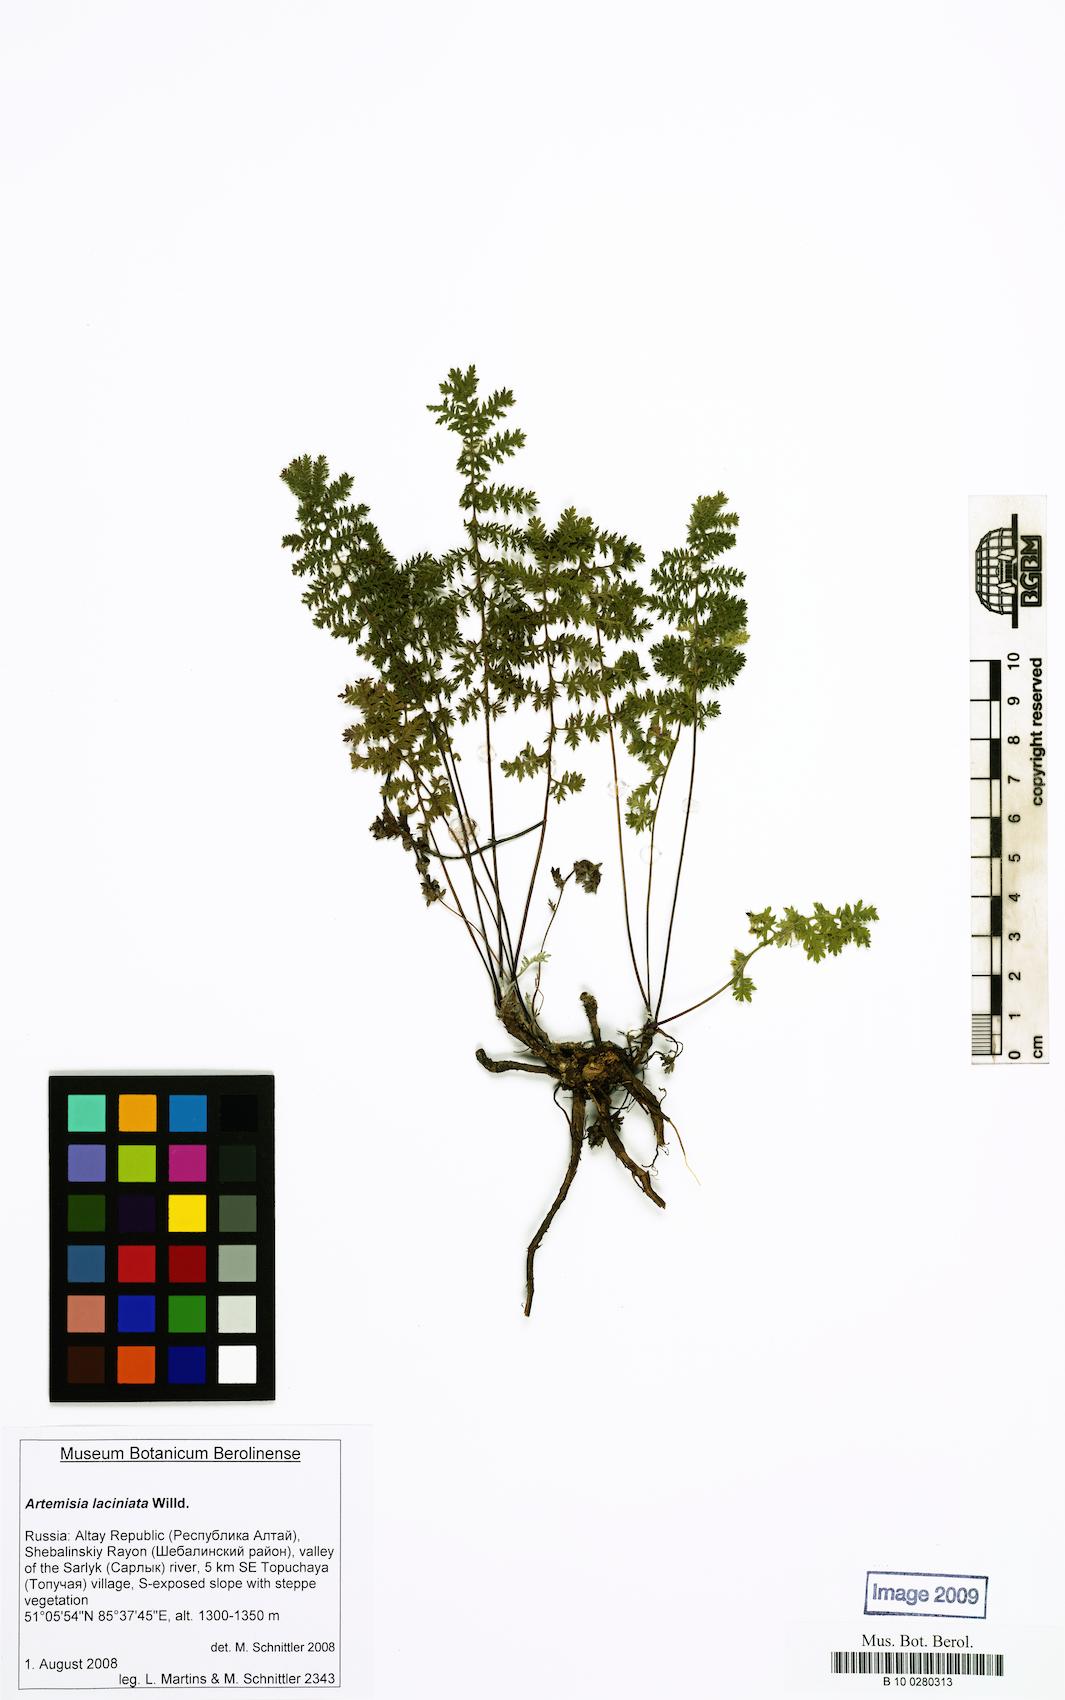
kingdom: Plantae
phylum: Tracheophyta
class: Magnoliopsida
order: Asterales
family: Asteraceae
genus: Artemisia
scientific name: Artemisia laciniata
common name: Siberian wormwood
